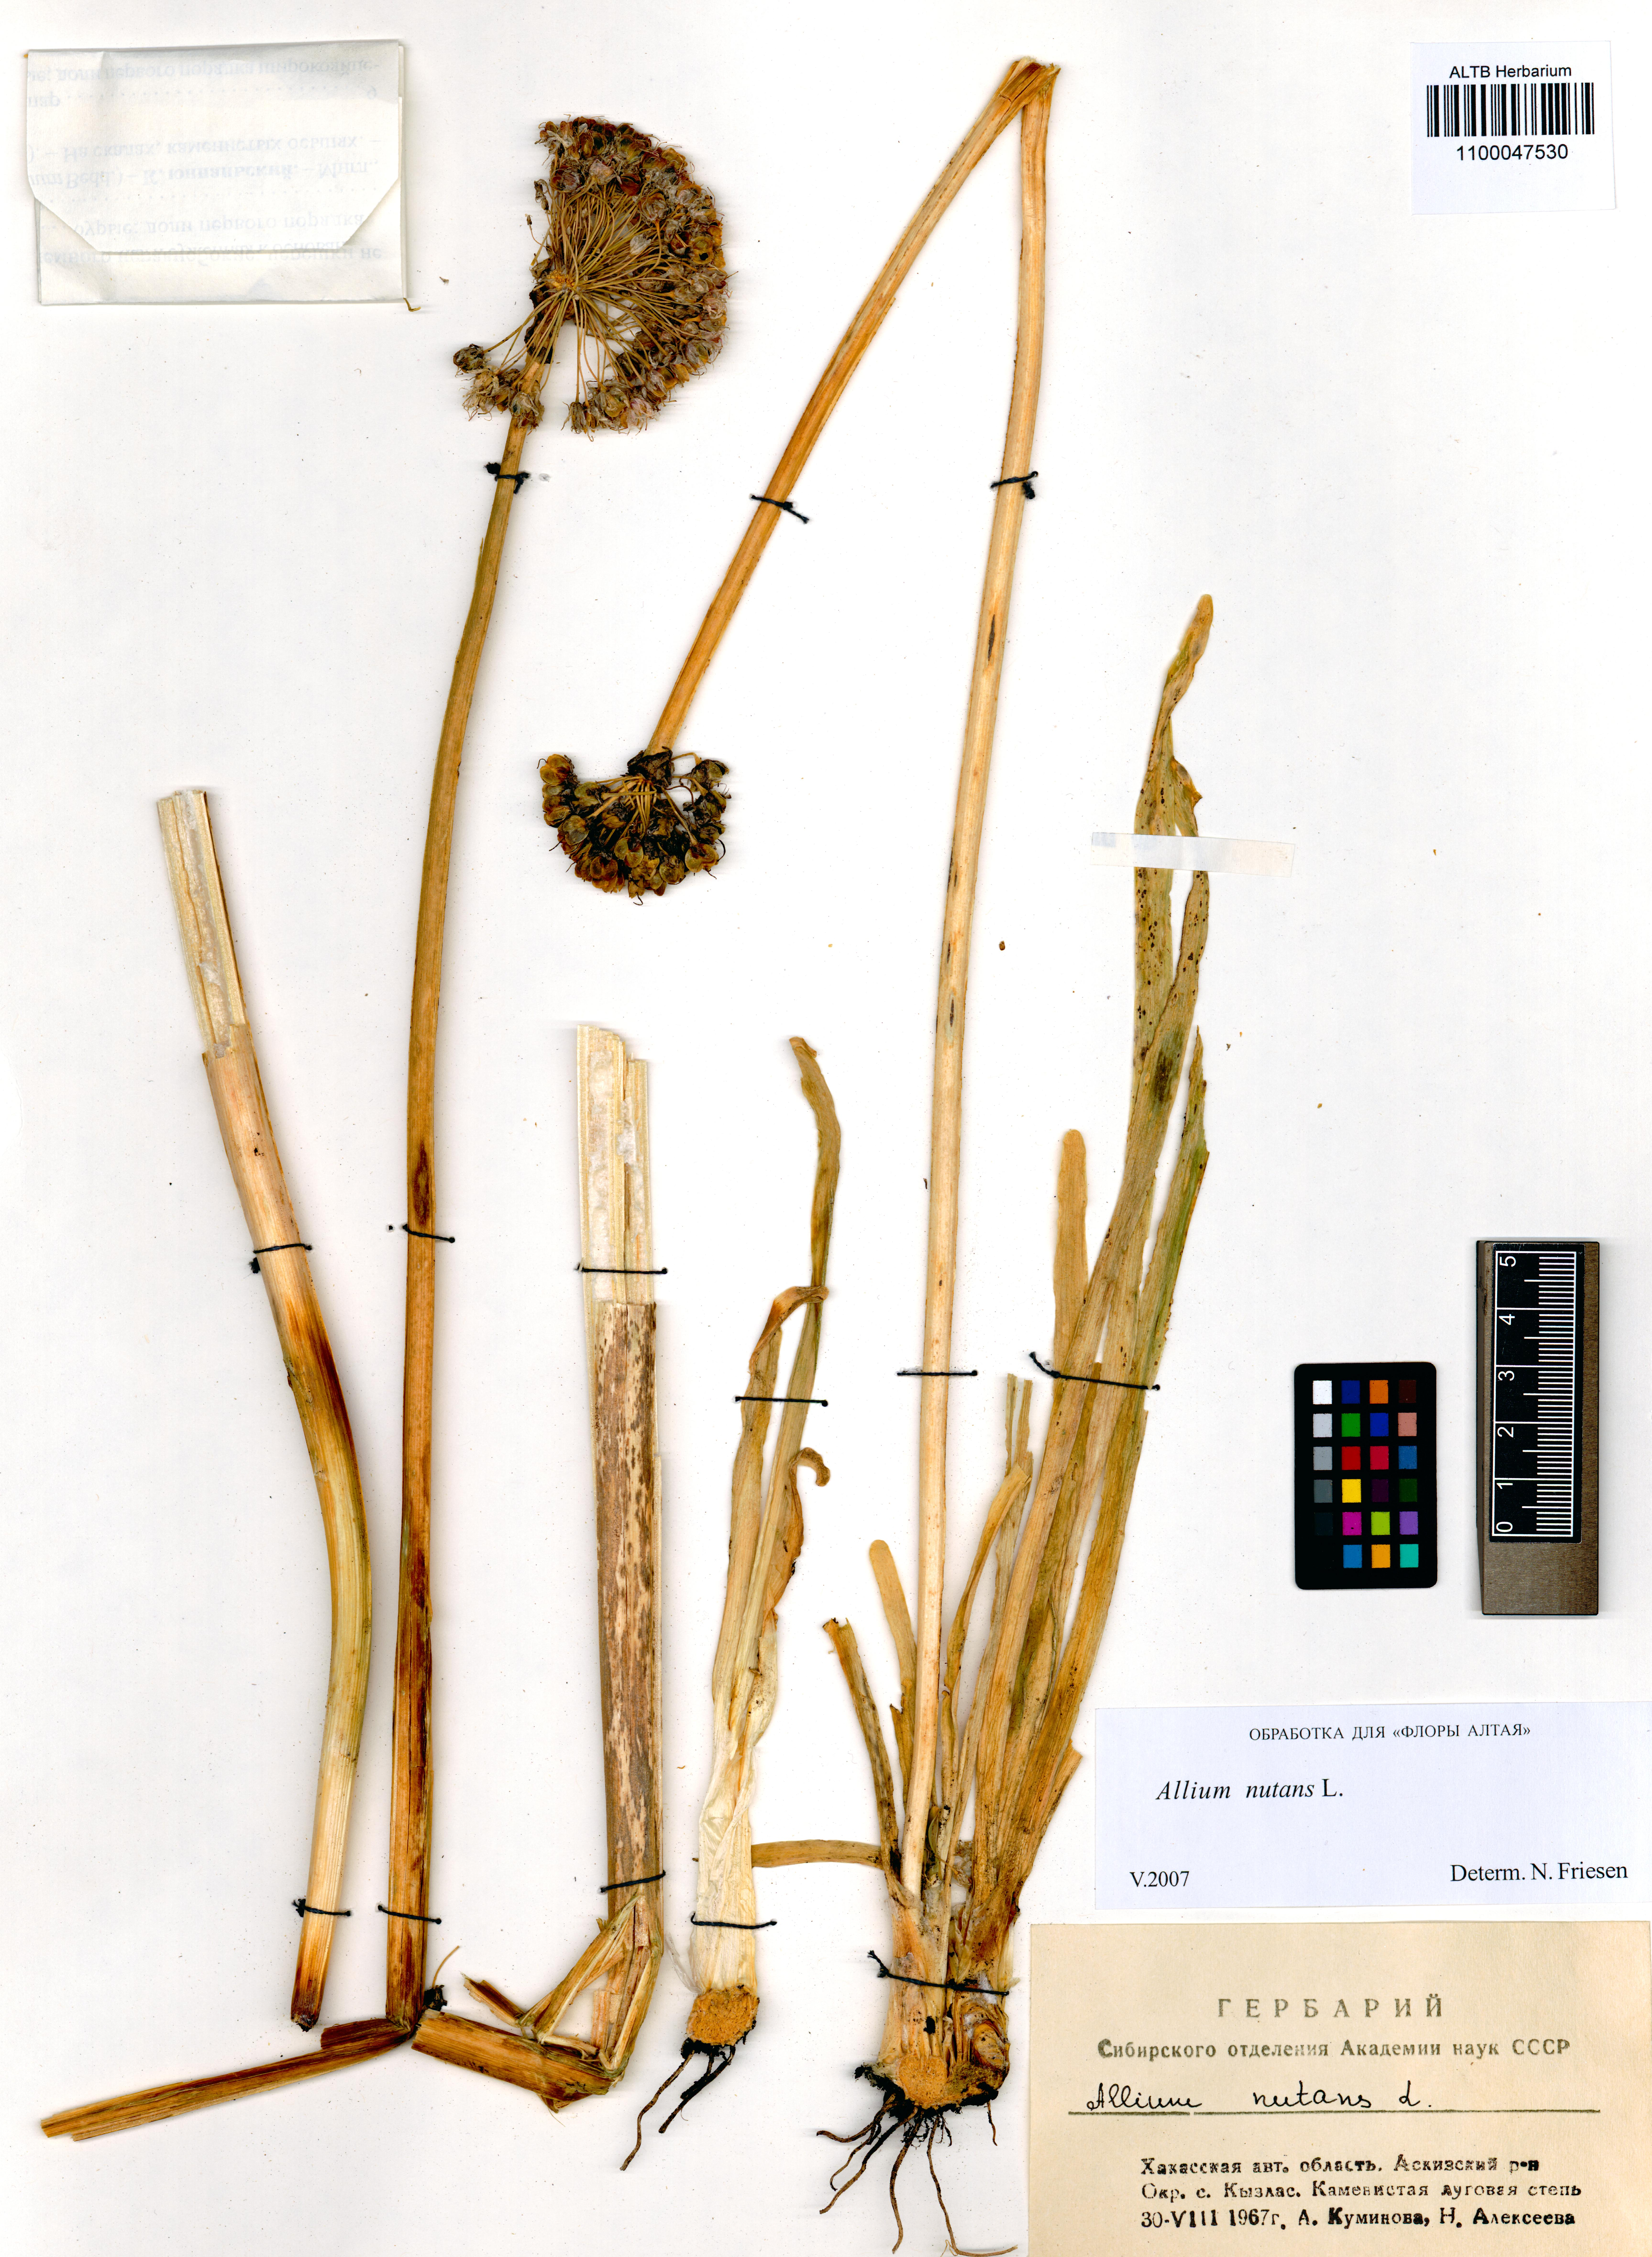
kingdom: Plantae
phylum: Tracheophyta
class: Liliopsida
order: Asparagales
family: Amaryllidaceae
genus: Allium
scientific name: Allium nutans
